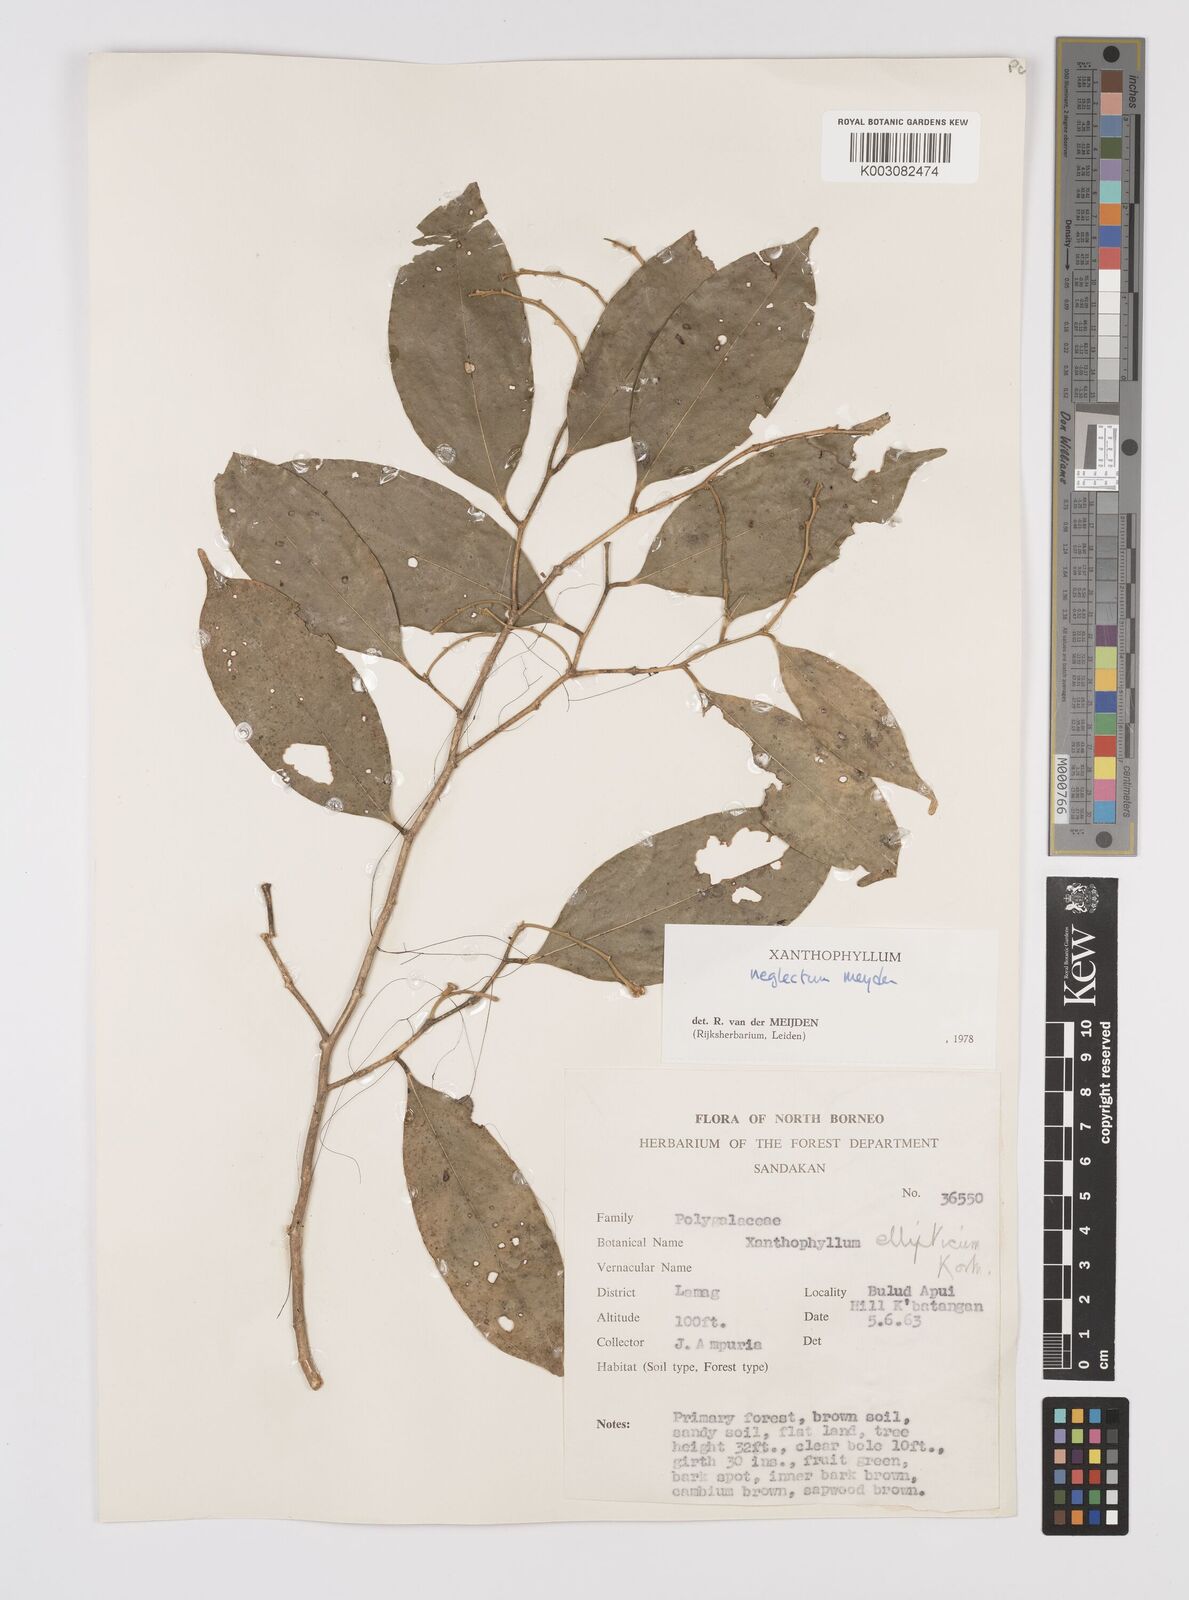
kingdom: Plantae
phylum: Tracheophyta
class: Magnoliopsida
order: Fabales
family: Polygalaceae
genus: Xanthophyllum
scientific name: Xanthophyllum neglectum
